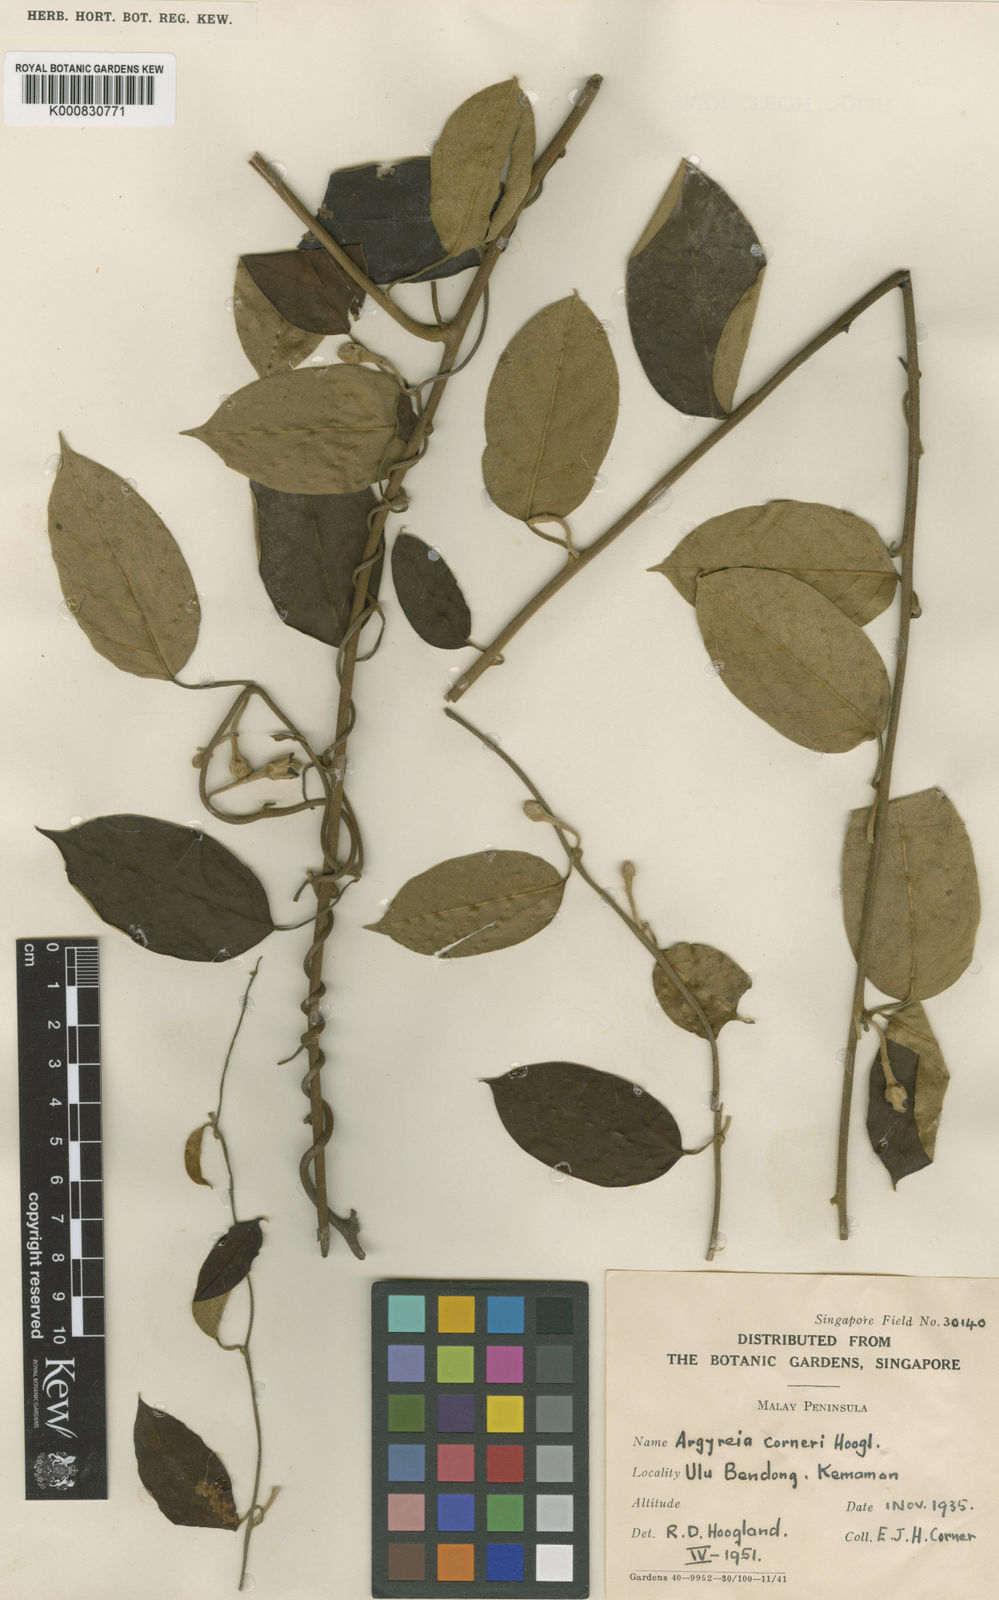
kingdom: Plantae
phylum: Tracheophyta
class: Magnoliopsida
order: Solanales
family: Convolvulaceae
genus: Argyreia
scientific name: Argyreia corneri
